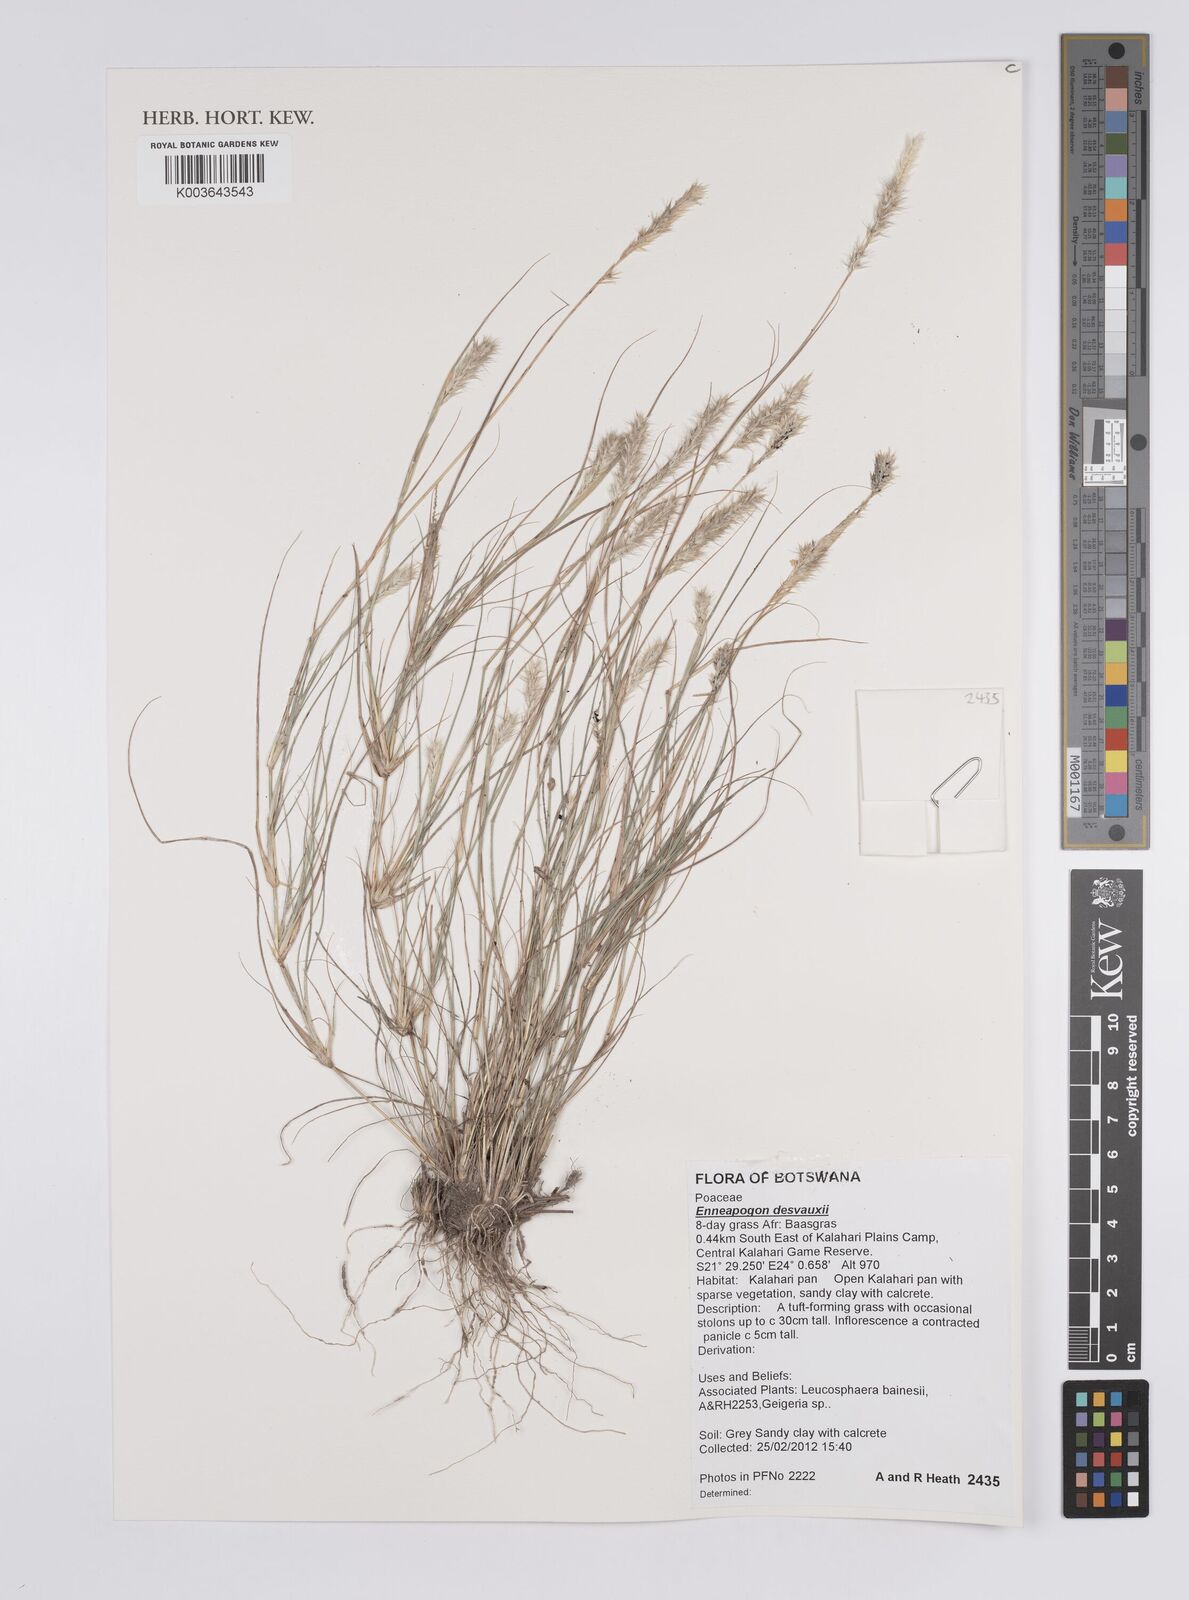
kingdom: Plantae
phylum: Tracheophyta
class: Liliopsida
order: Poales
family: Poaceae
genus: Enneapogon
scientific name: Enneapogon desvauxii
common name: Feather pappus grass
